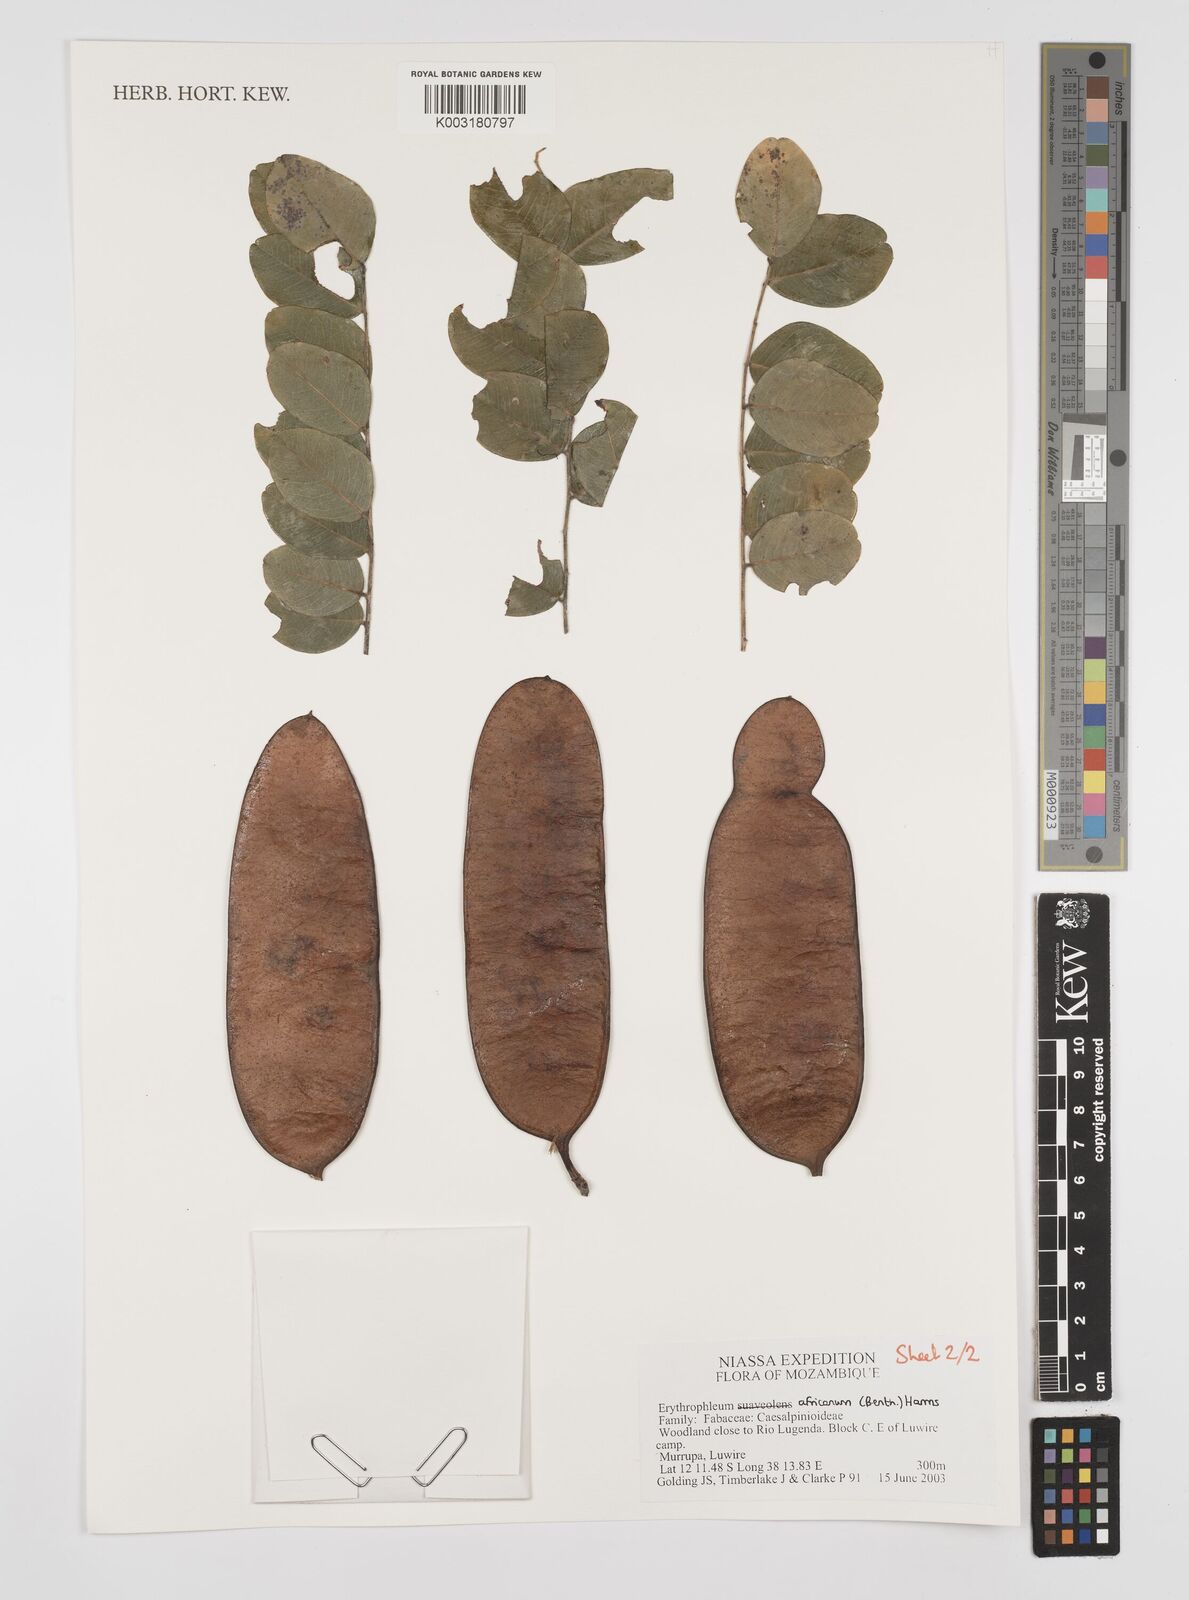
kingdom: Plantae
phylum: Tracheophyta
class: Magnoliopsida
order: Fabales
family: Fabaceae
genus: Peltophorum
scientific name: Peltophorum africanum
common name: African black wattle
